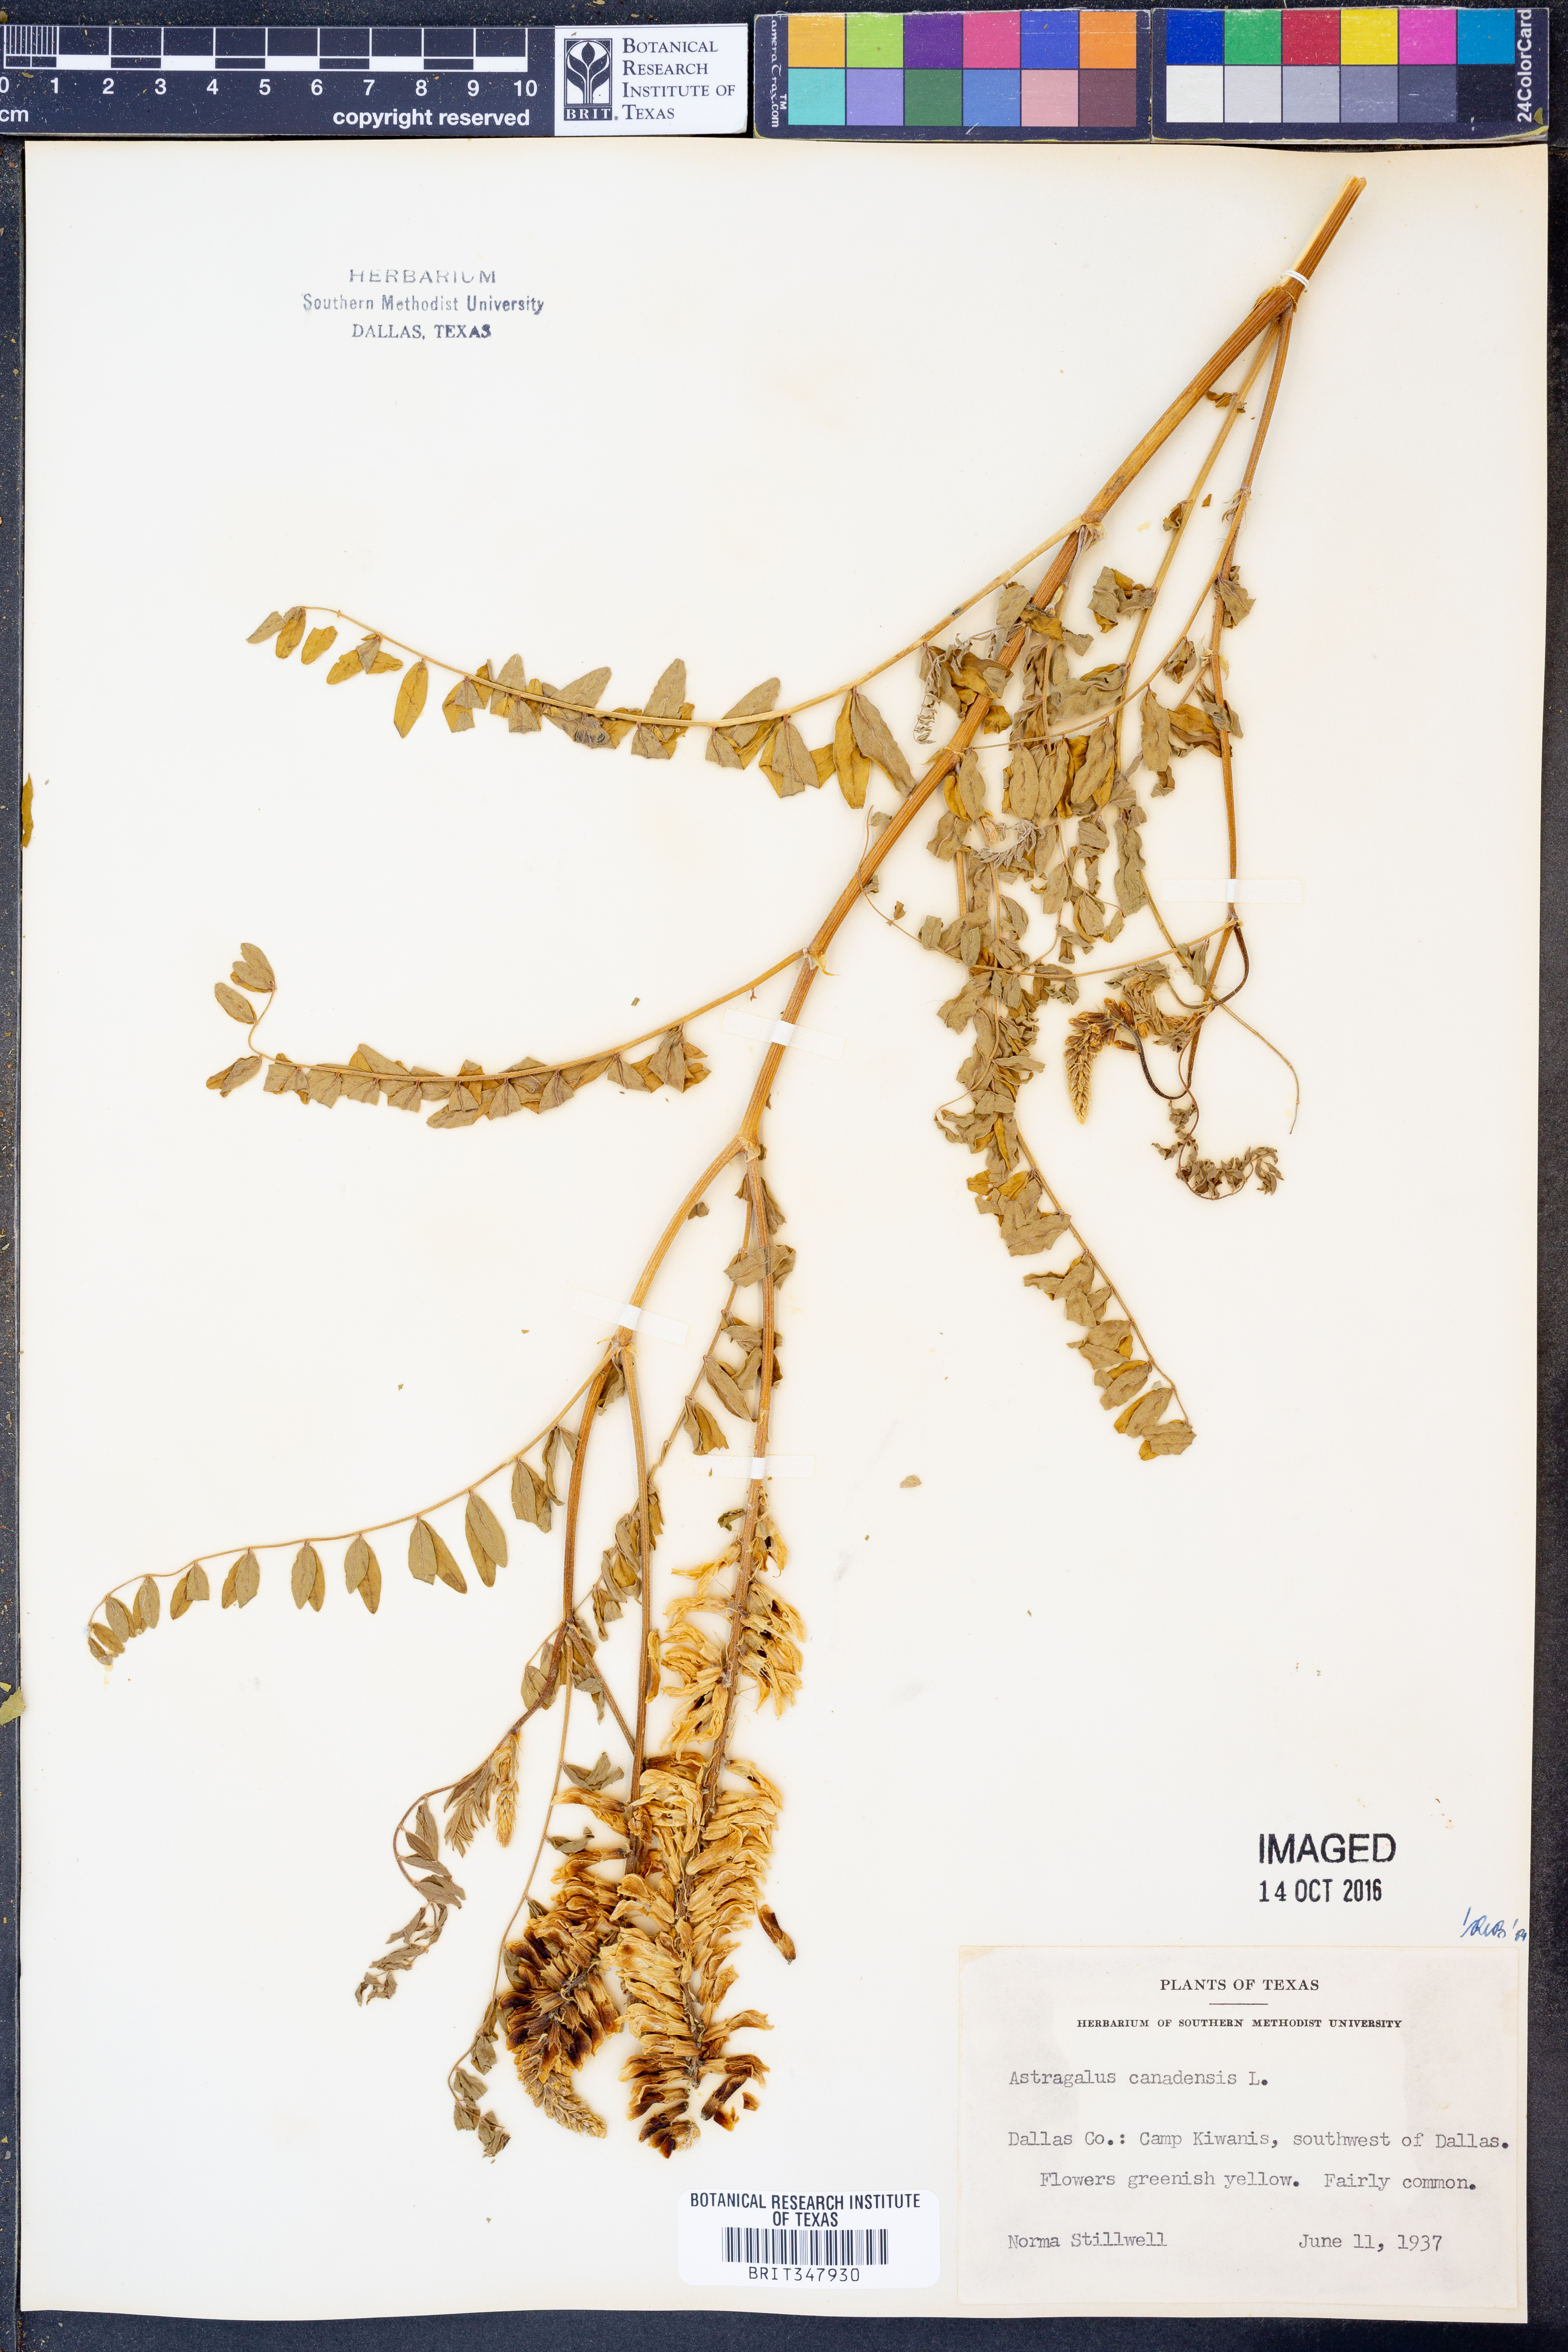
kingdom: Plantae
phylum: Tracheophyta
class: Magnoliopsida
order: Fabales
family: Fabaceae
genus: Astragalus
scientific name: Astragalus canadensis
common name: Canada milk-vetch
